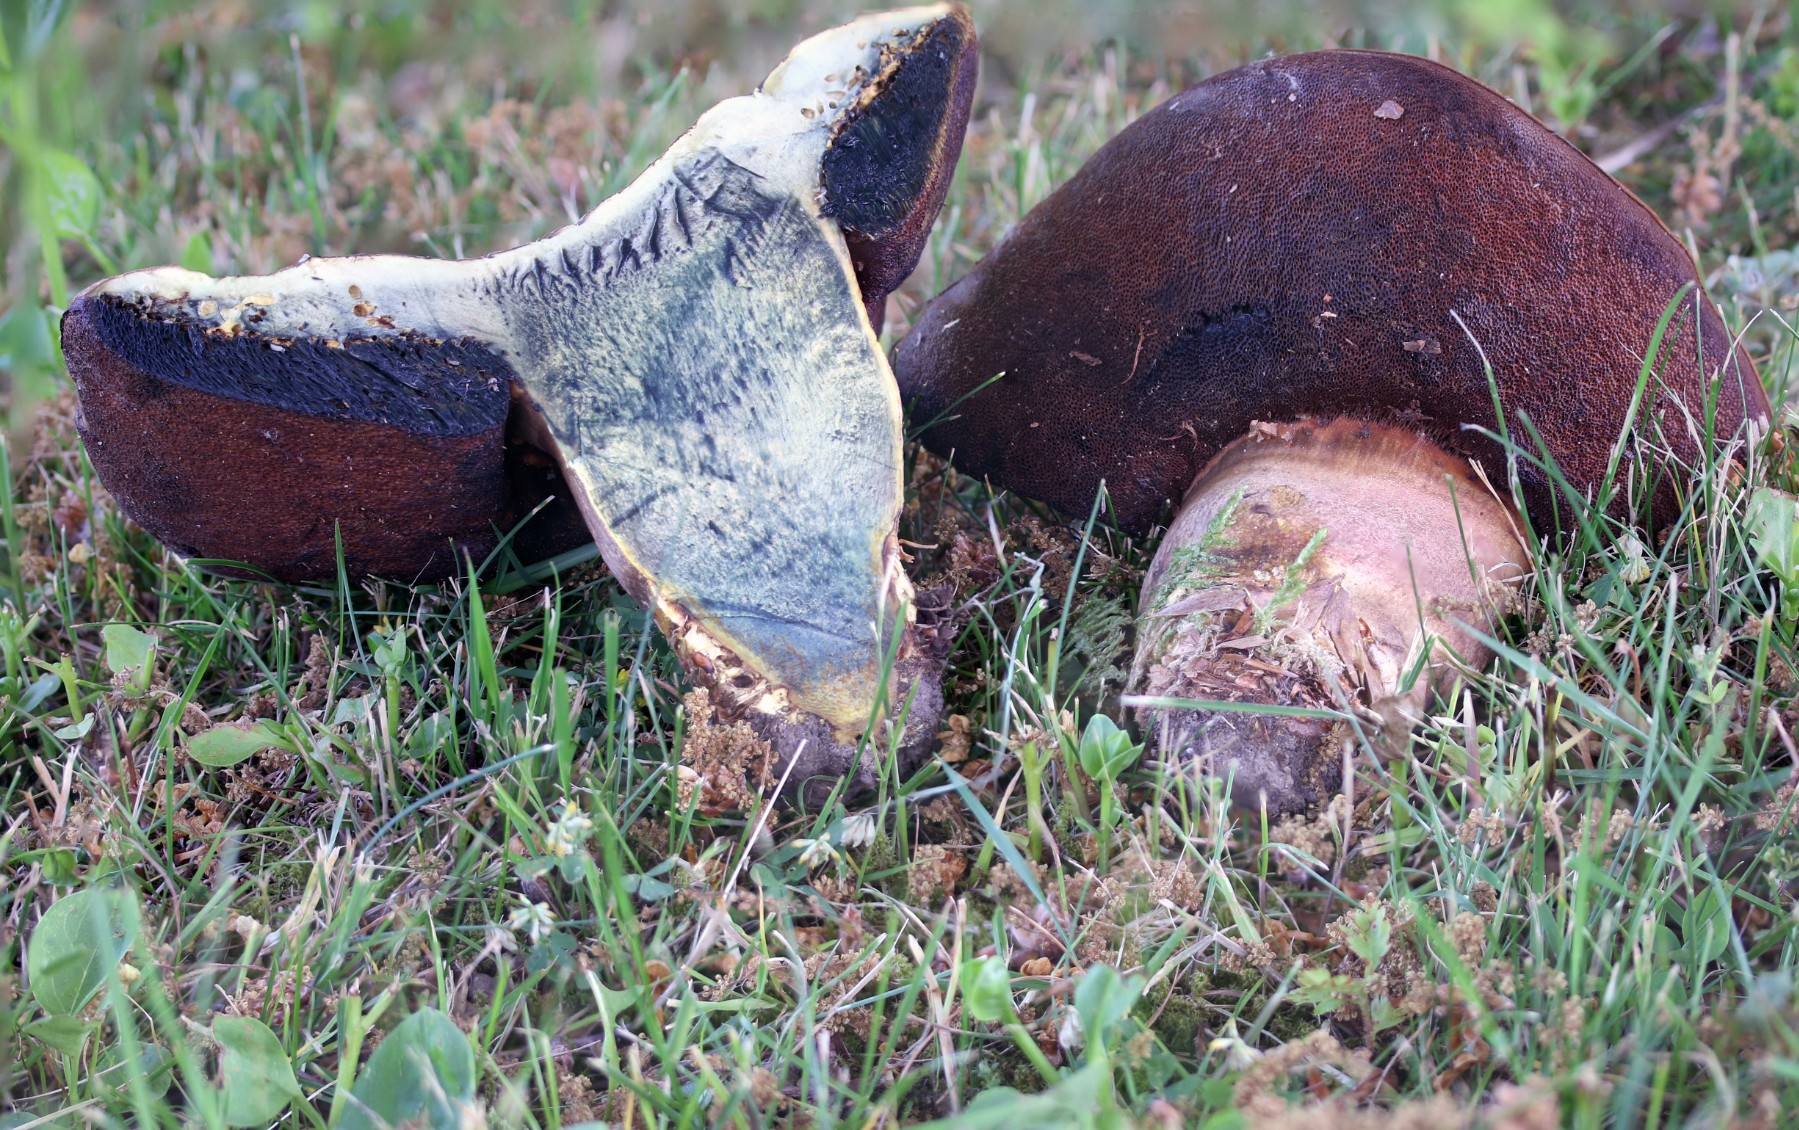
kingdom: Fungi
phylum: Basidiomycota
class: Agaricomycetes
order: Boletales
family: Boletaceae
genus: Neoboletus
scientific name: Neoboletus erythropus
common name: punktstokket indigorørhat
